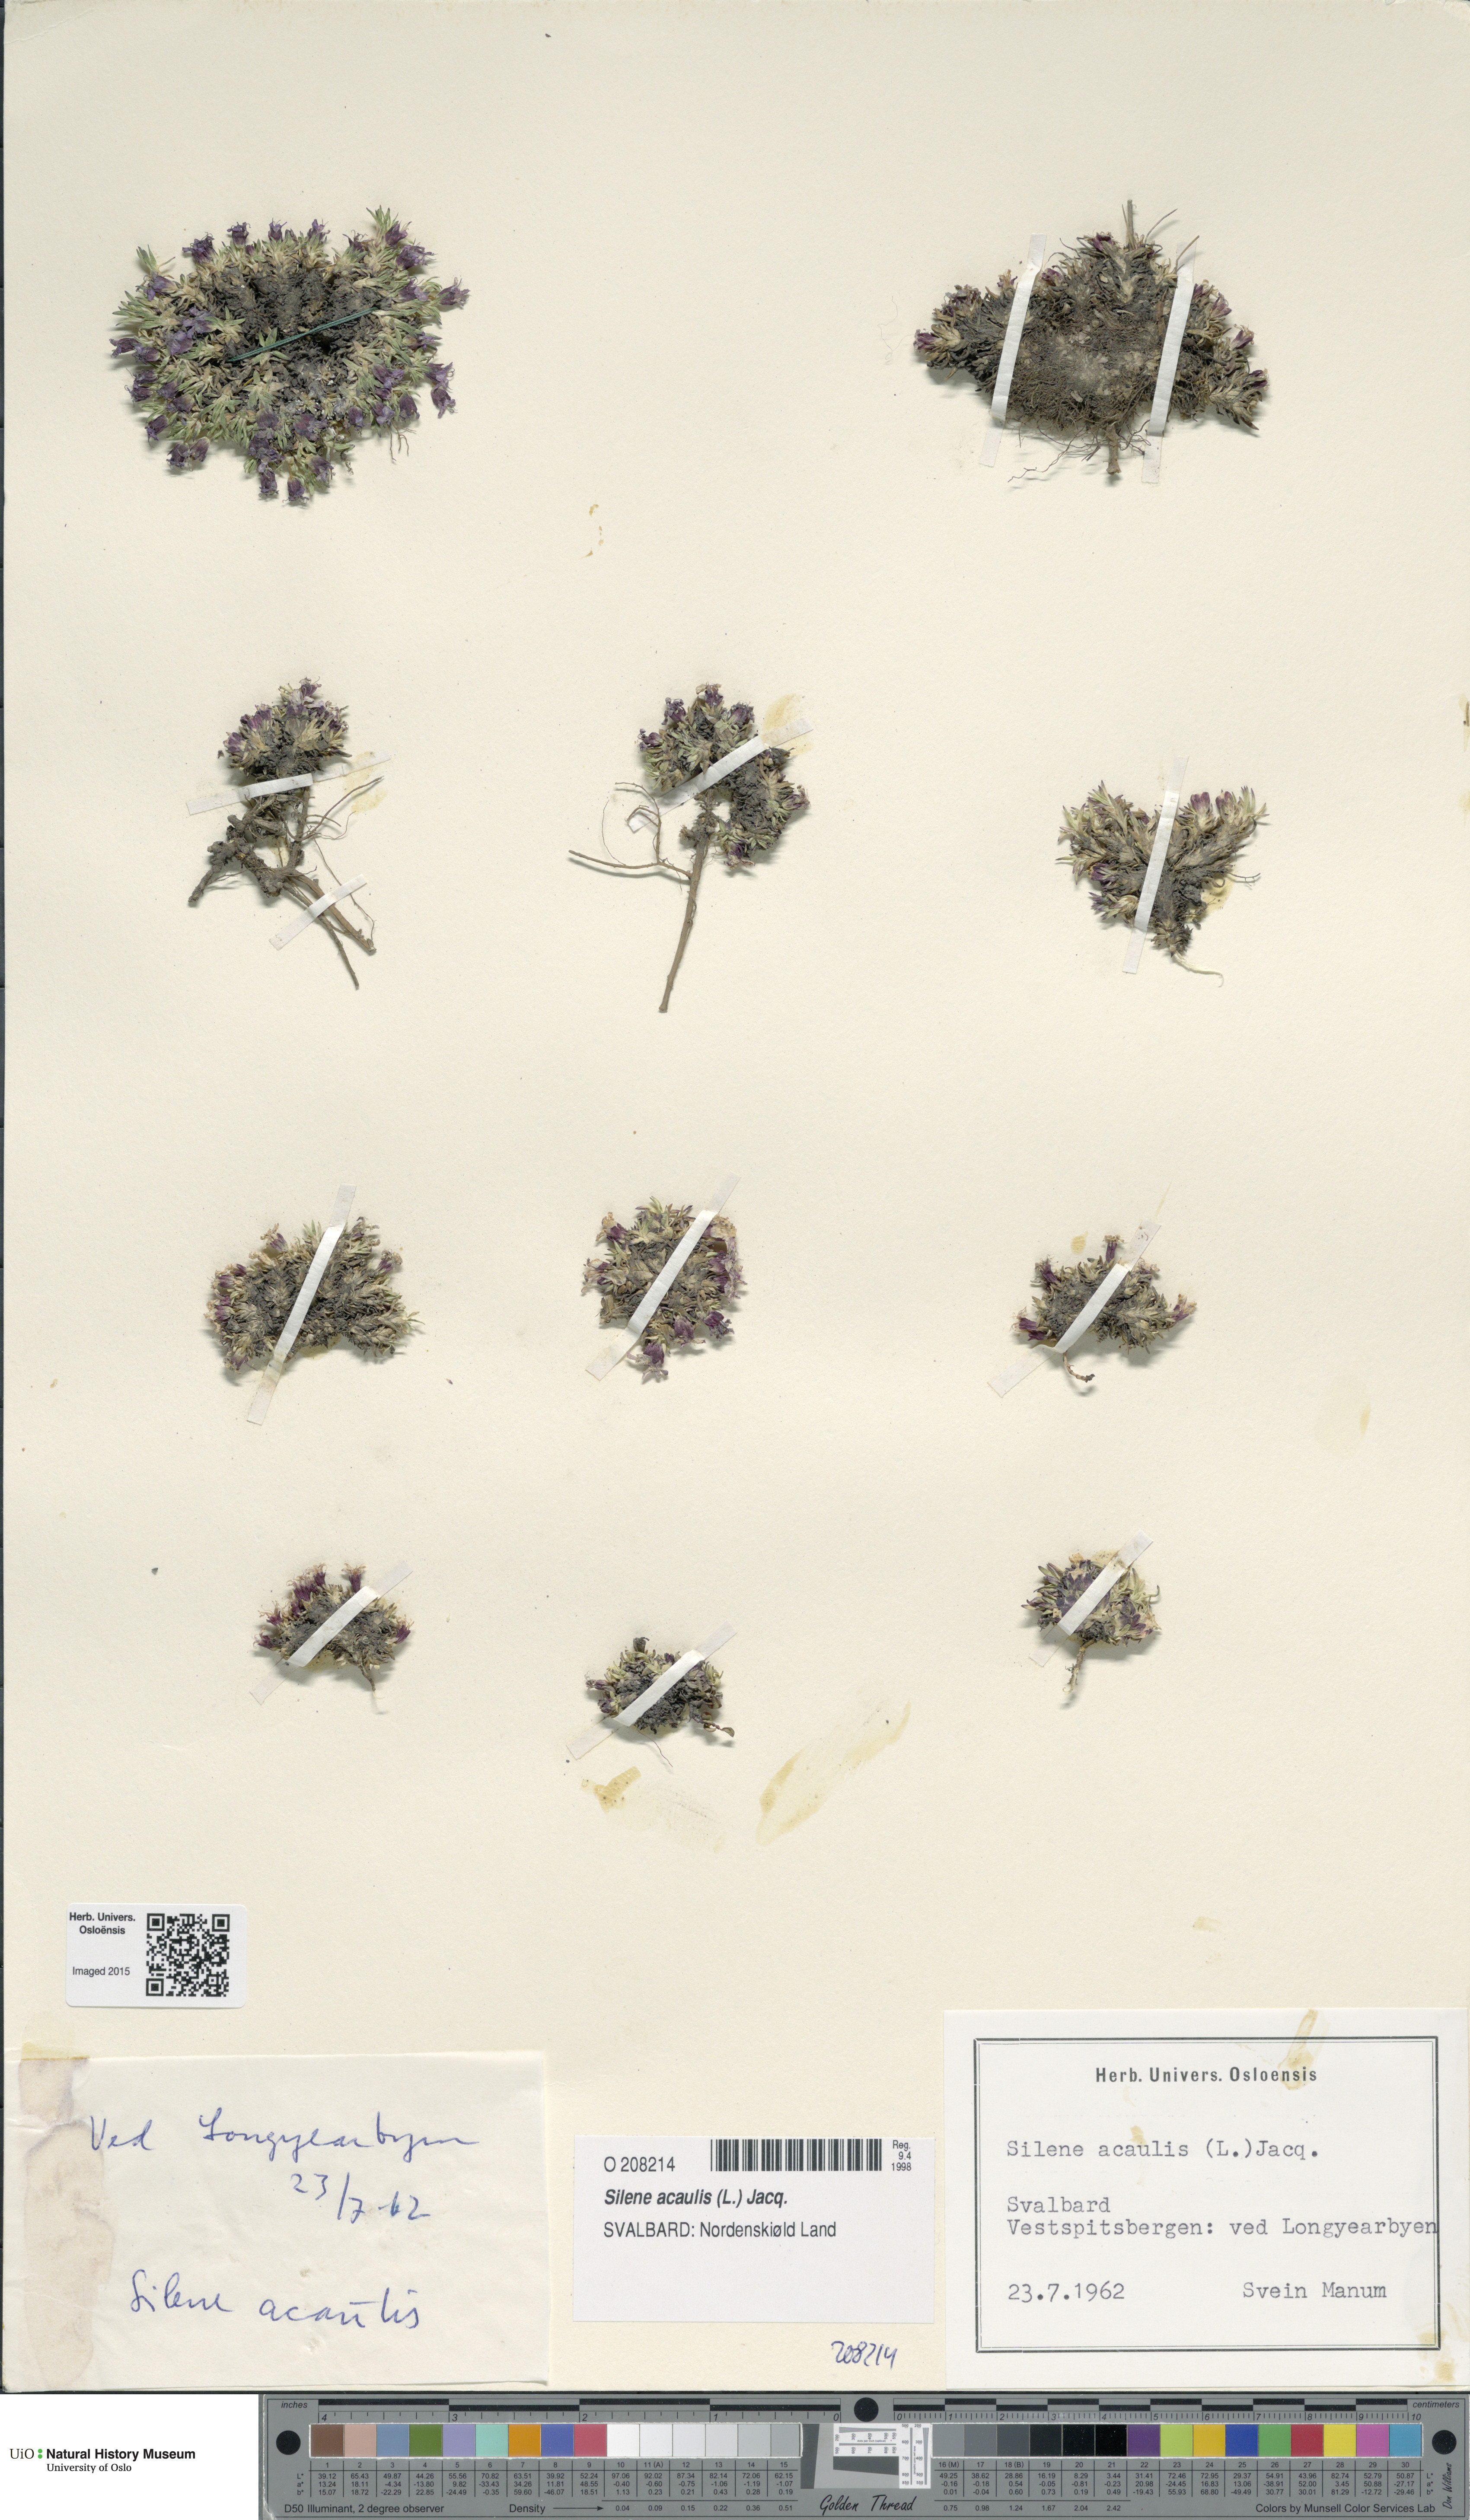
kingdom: Plantae
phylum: Tracheophyta
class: Magnoliopsida
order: Caryophyllales
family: Caryophyllaceae
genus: Silene
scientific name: Silene acaulis
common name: Moss campion
